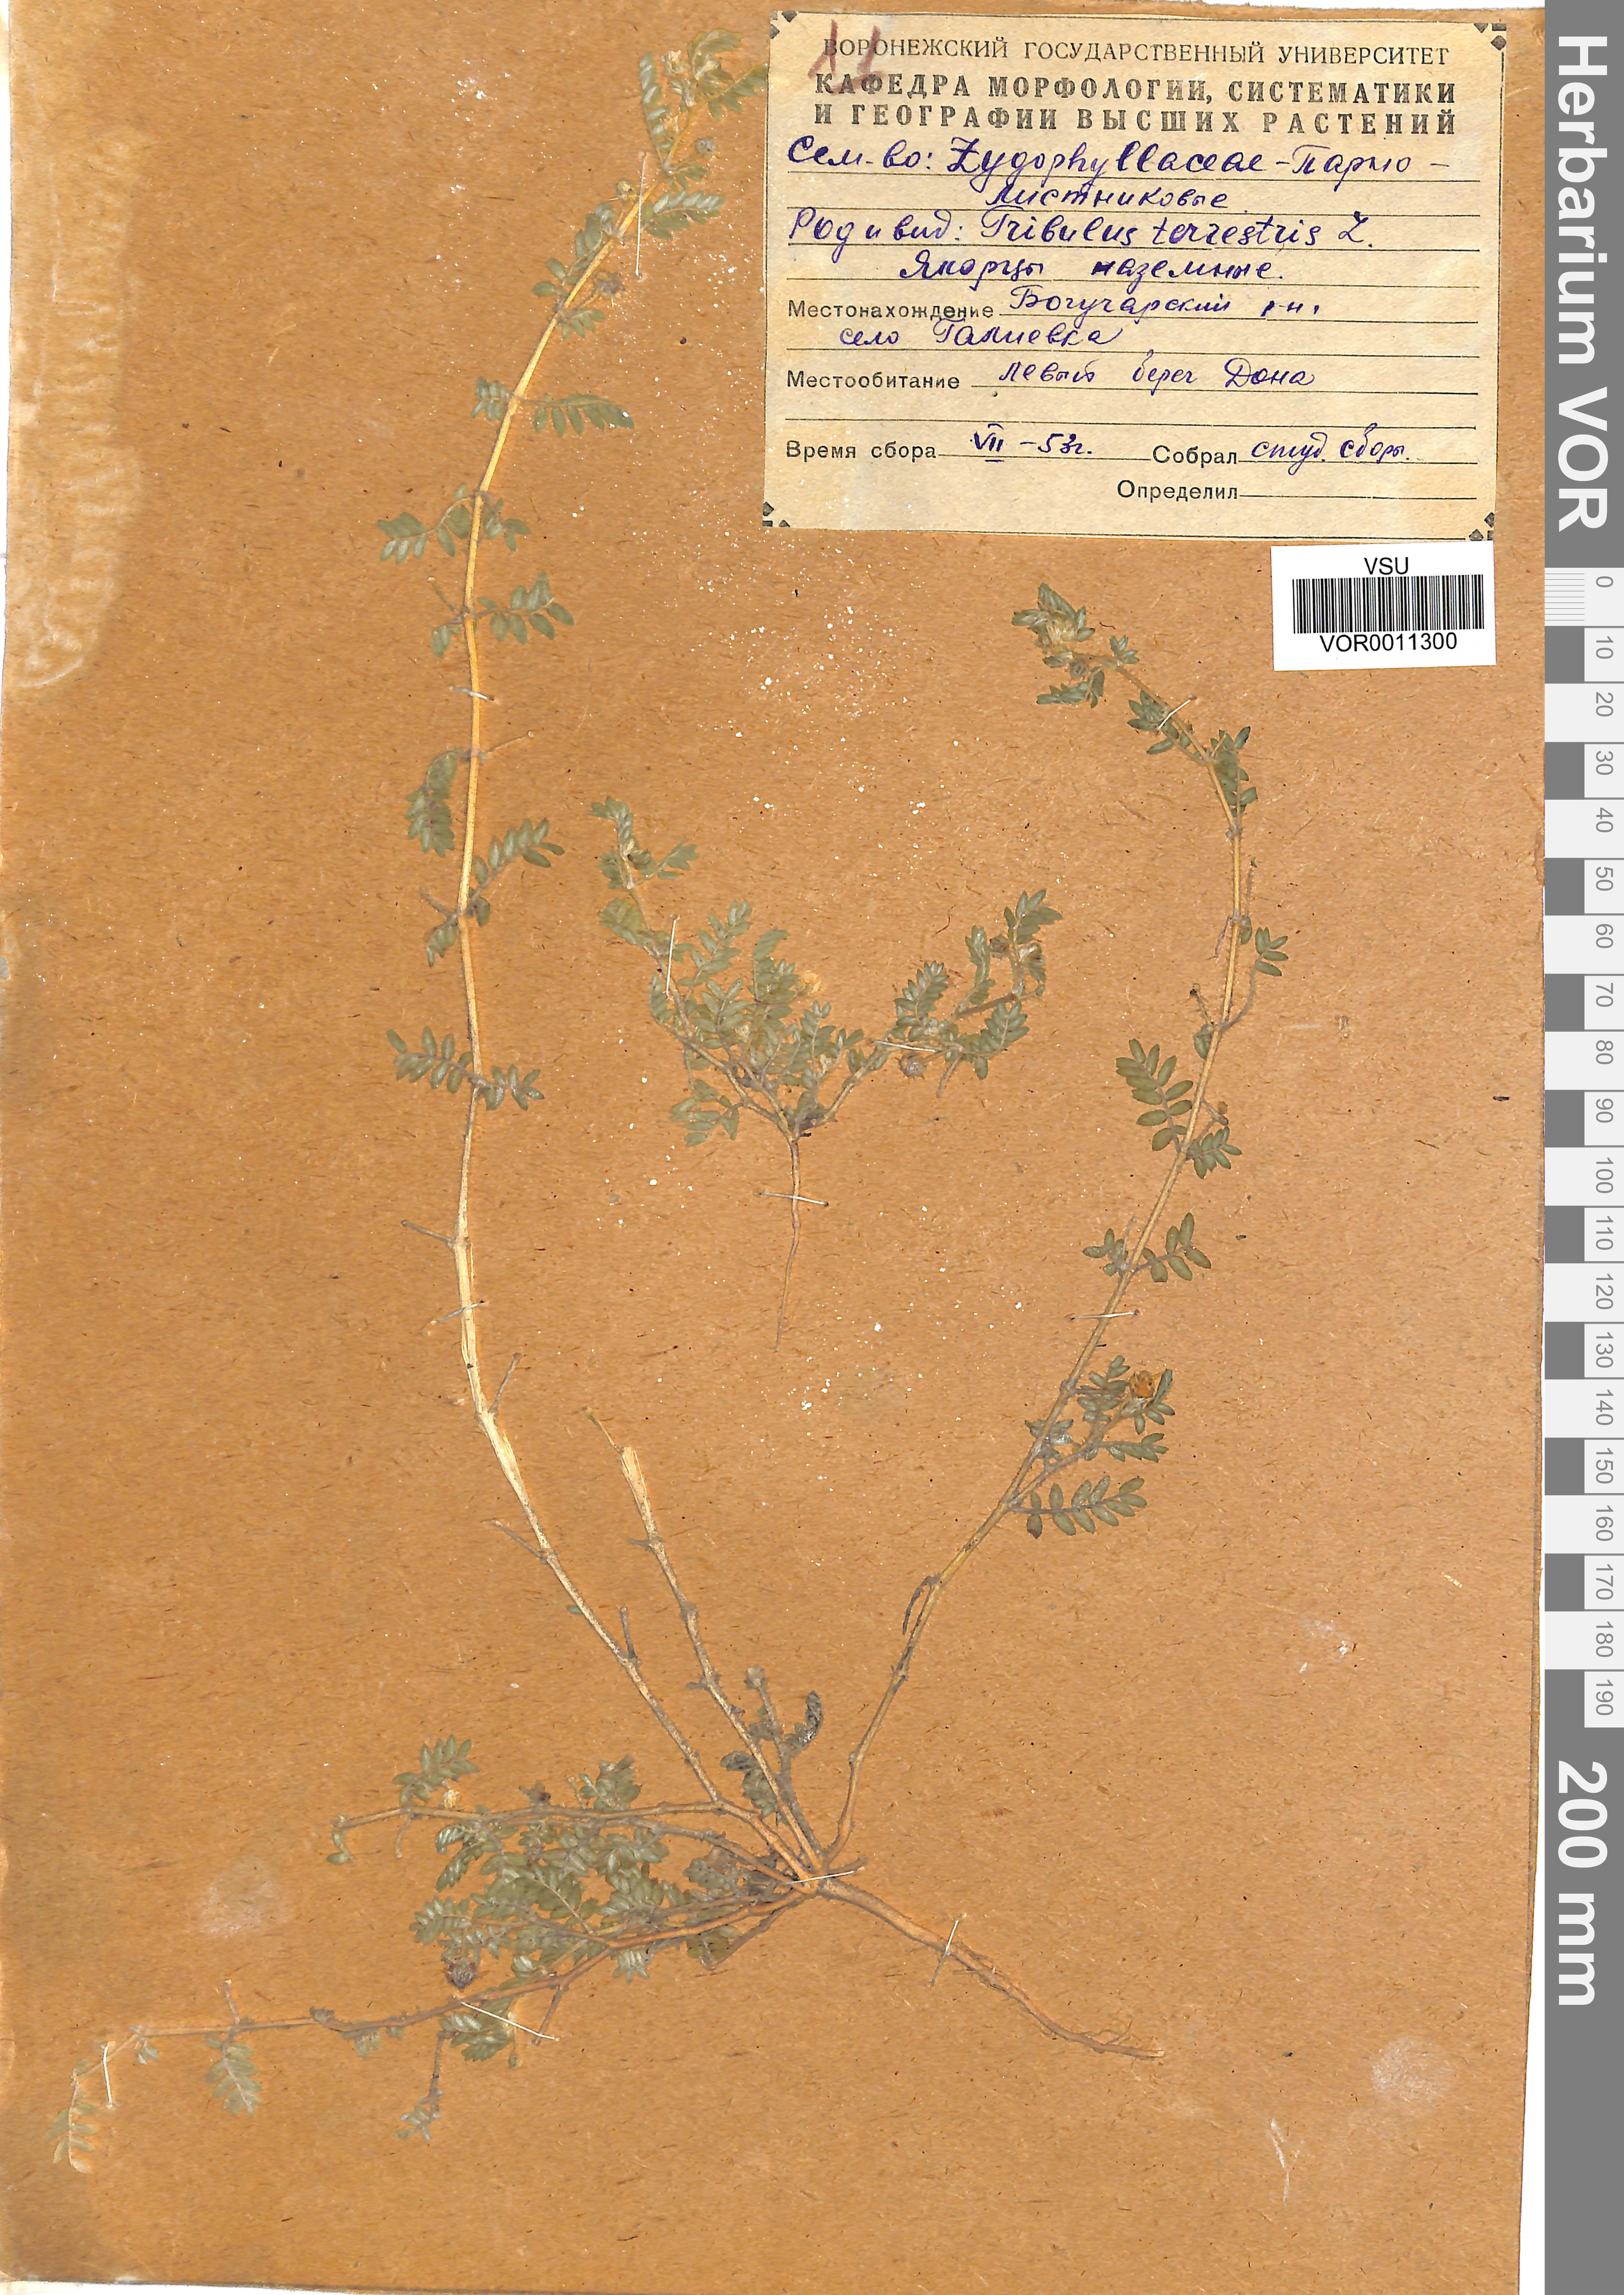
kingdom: Plantae
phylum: Tracheophyta
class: Magnoliopsida
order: Zygophyllales
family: Zygophyllaceae
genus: Tribulus
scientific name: Tribulus terrestris
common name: Puncturevine
